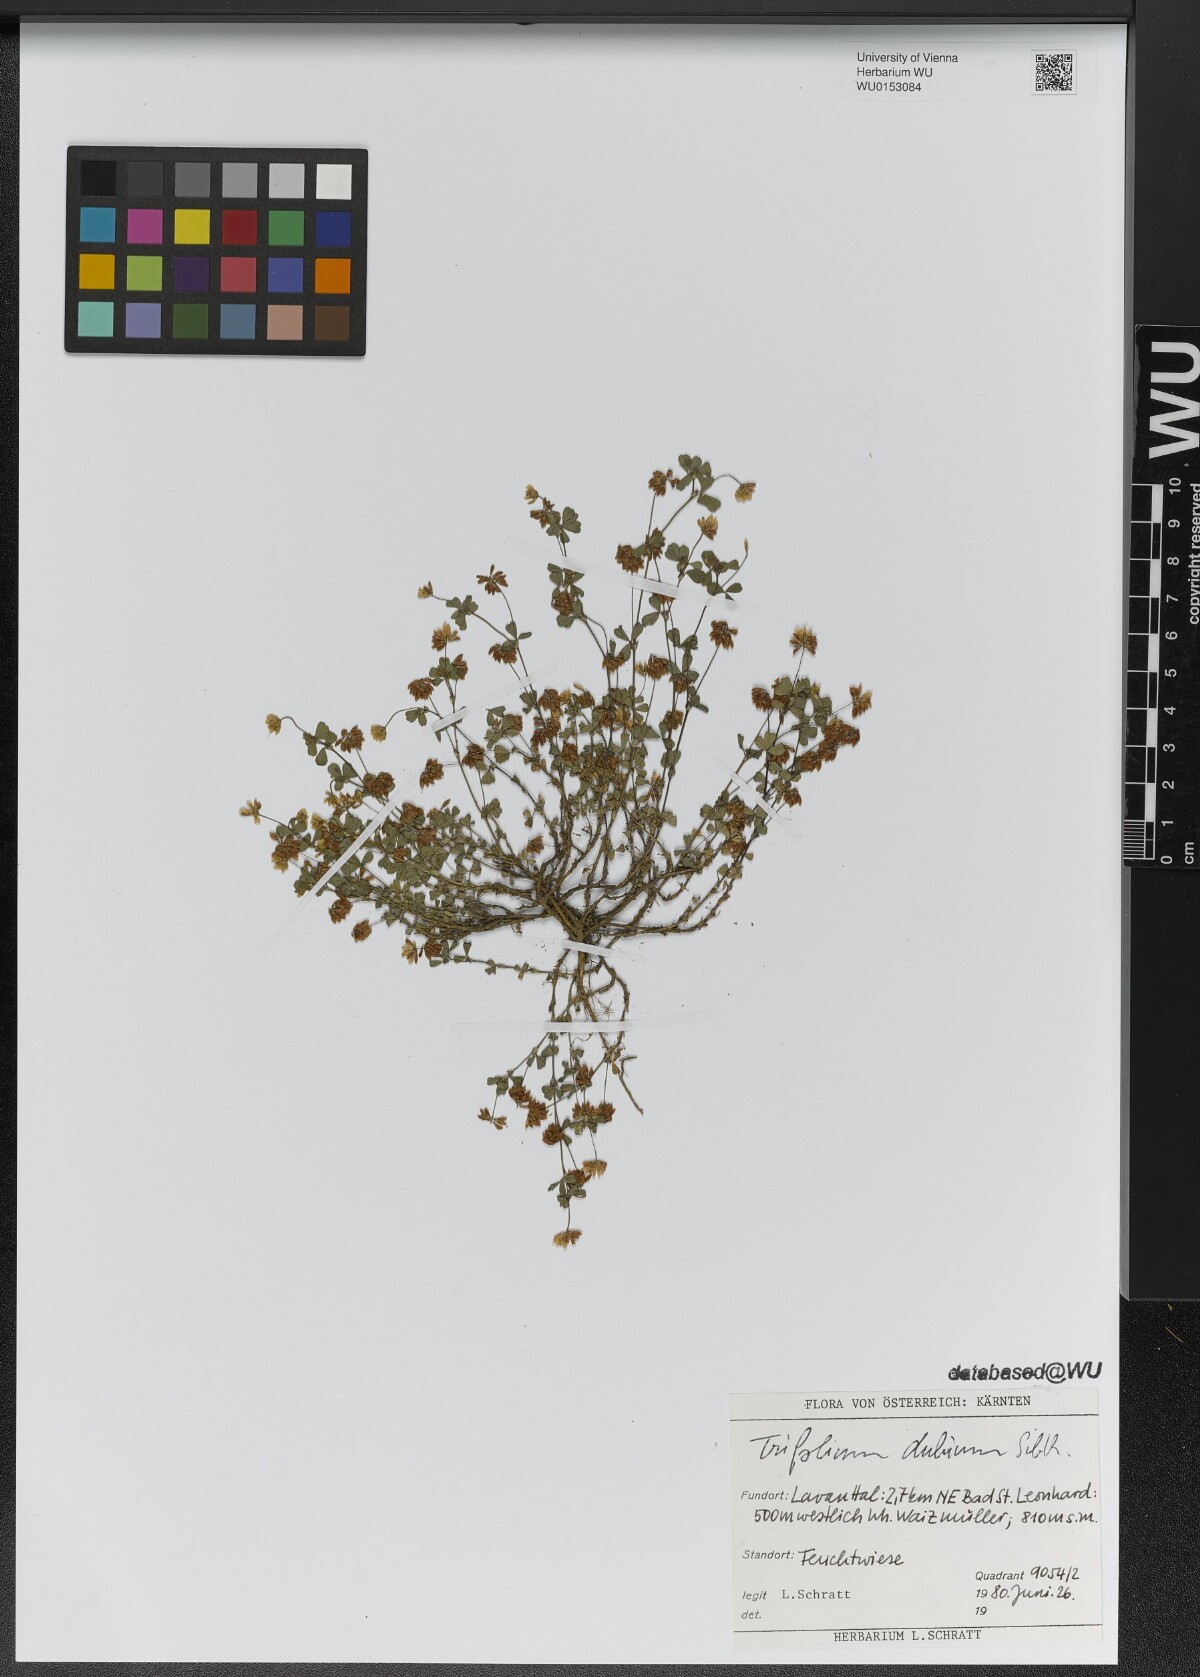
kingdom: Plantae
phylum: Tracheophyta
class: Magnoliopsida
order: Fabales
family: Fabaceae
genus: Trifolium
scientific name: Trifolium dubium
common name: Suckling clover
